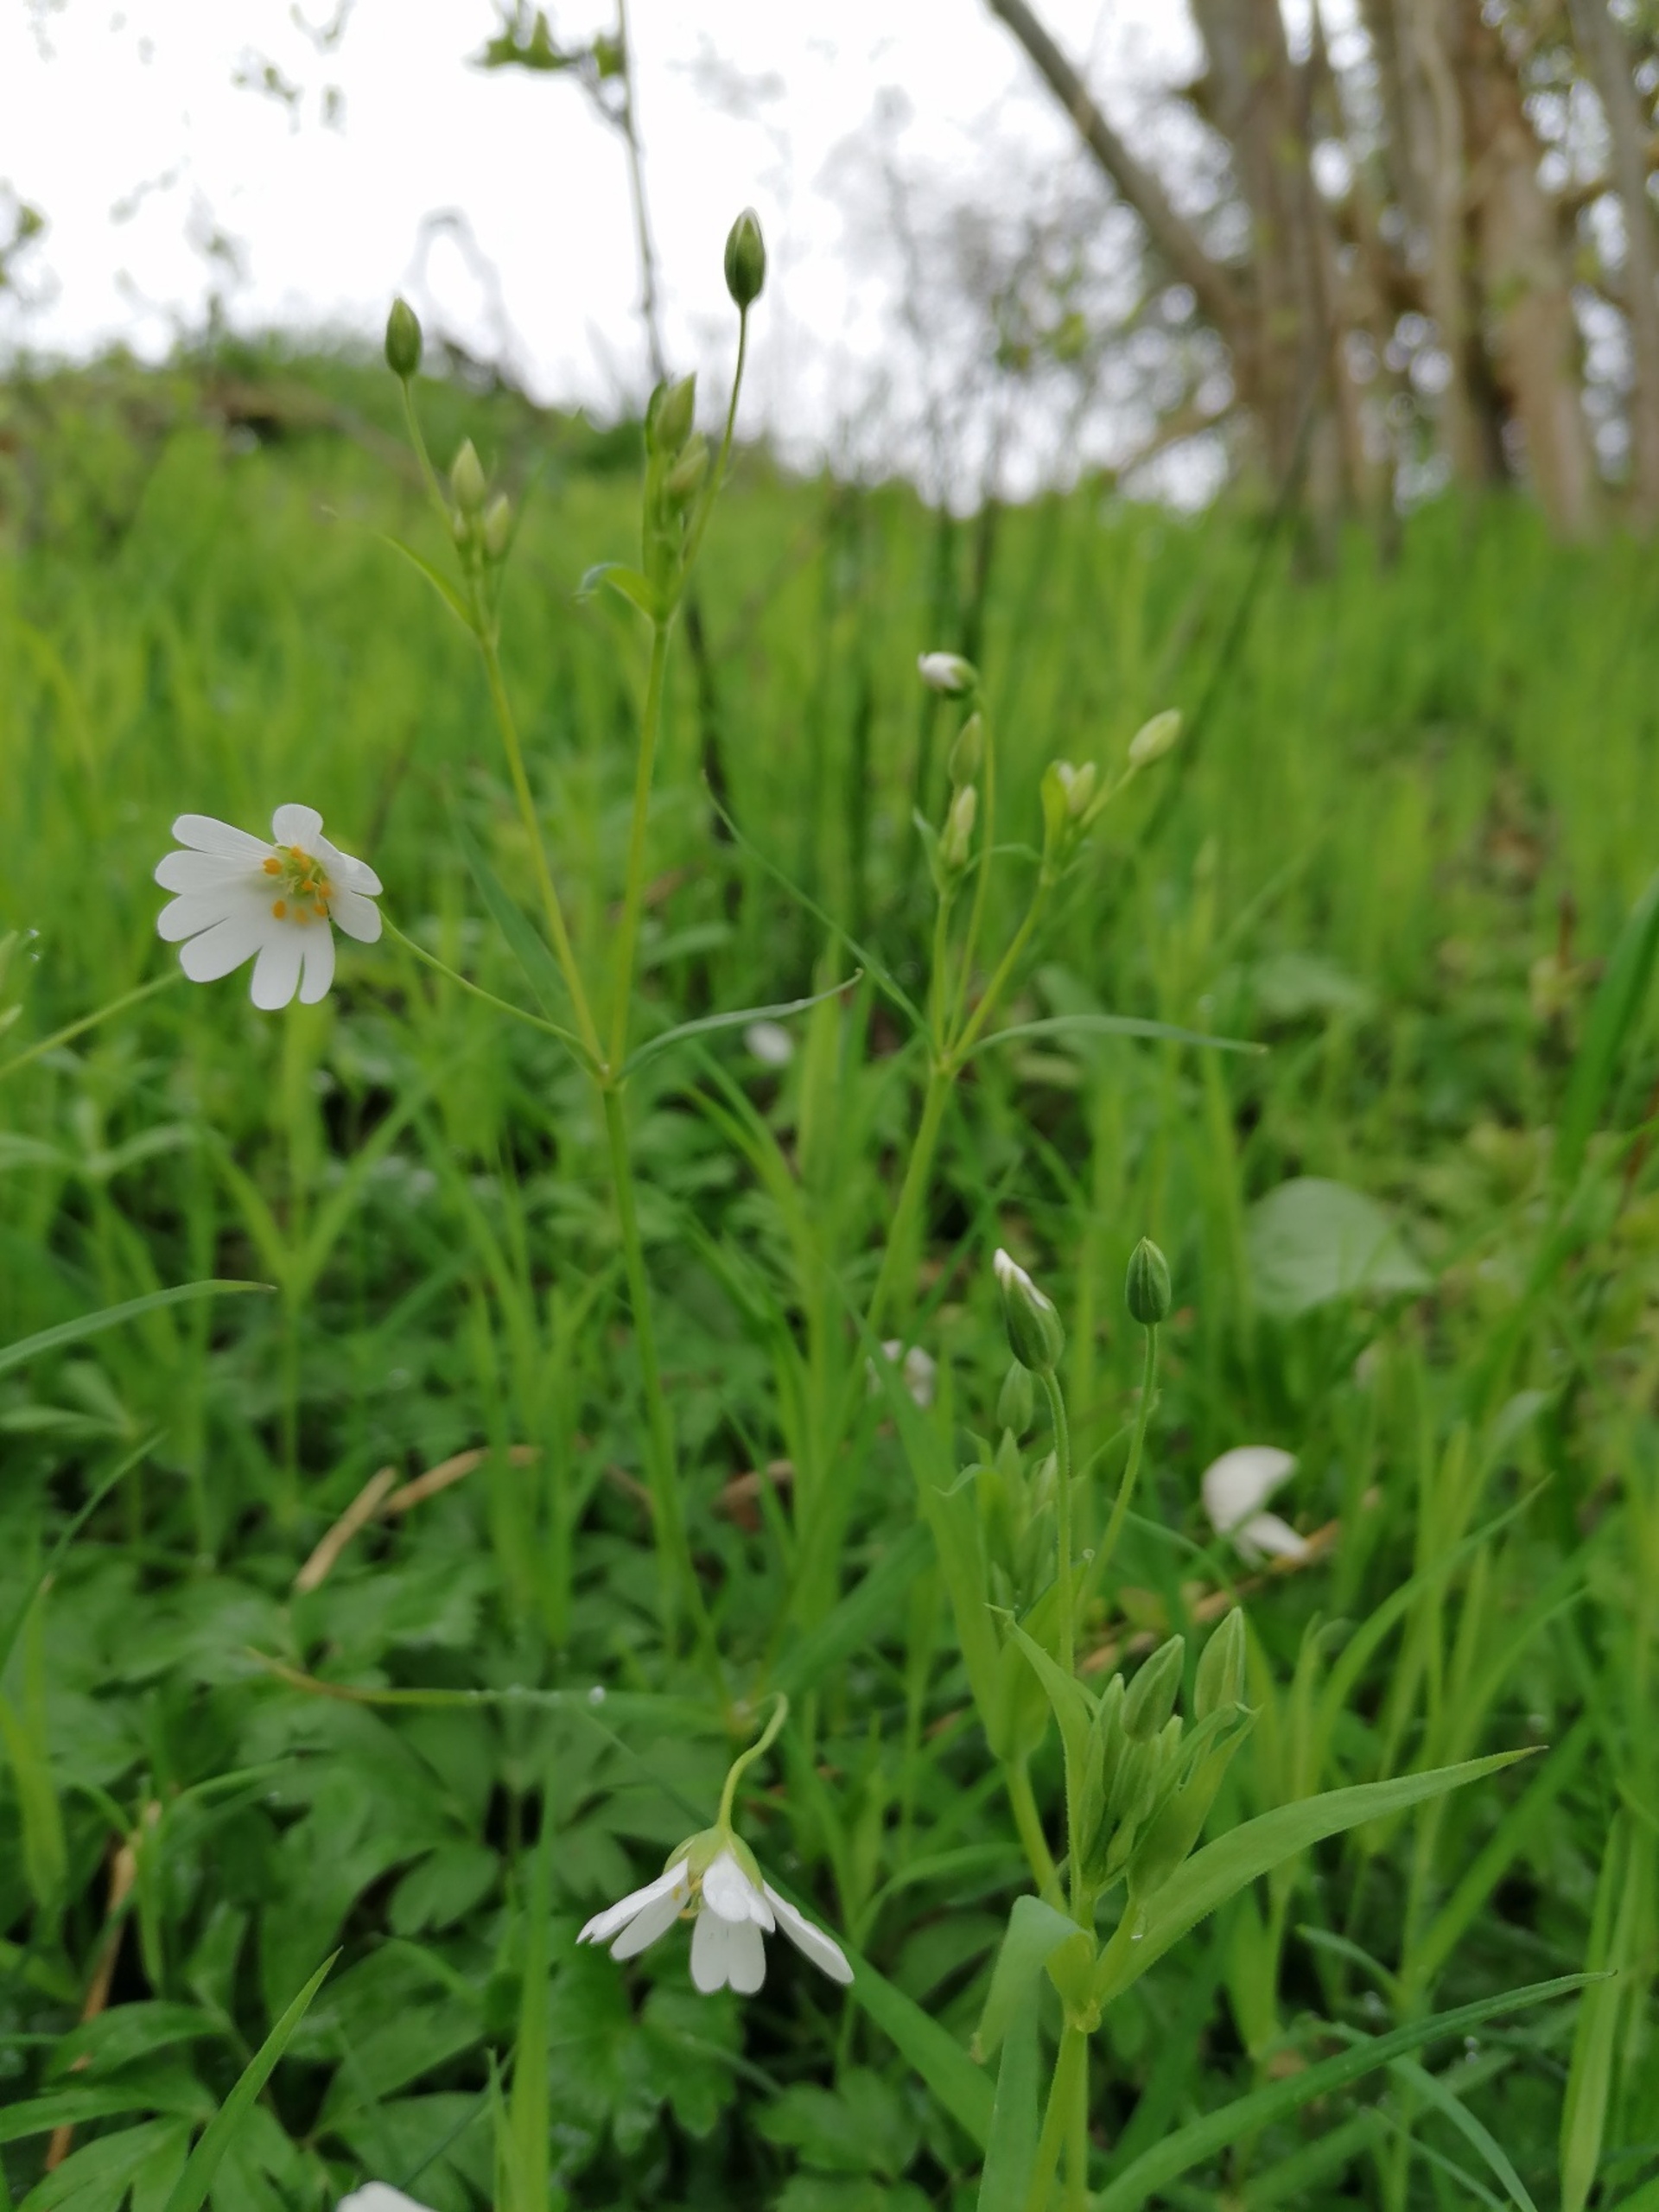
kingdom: Plantae
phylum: Tracheophyta
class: Magnoliopsida
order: Caryophyllales
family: Caryophyllaceae
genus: Rabelera
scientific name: Rabelera holostea
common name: Stor fladstjerne
